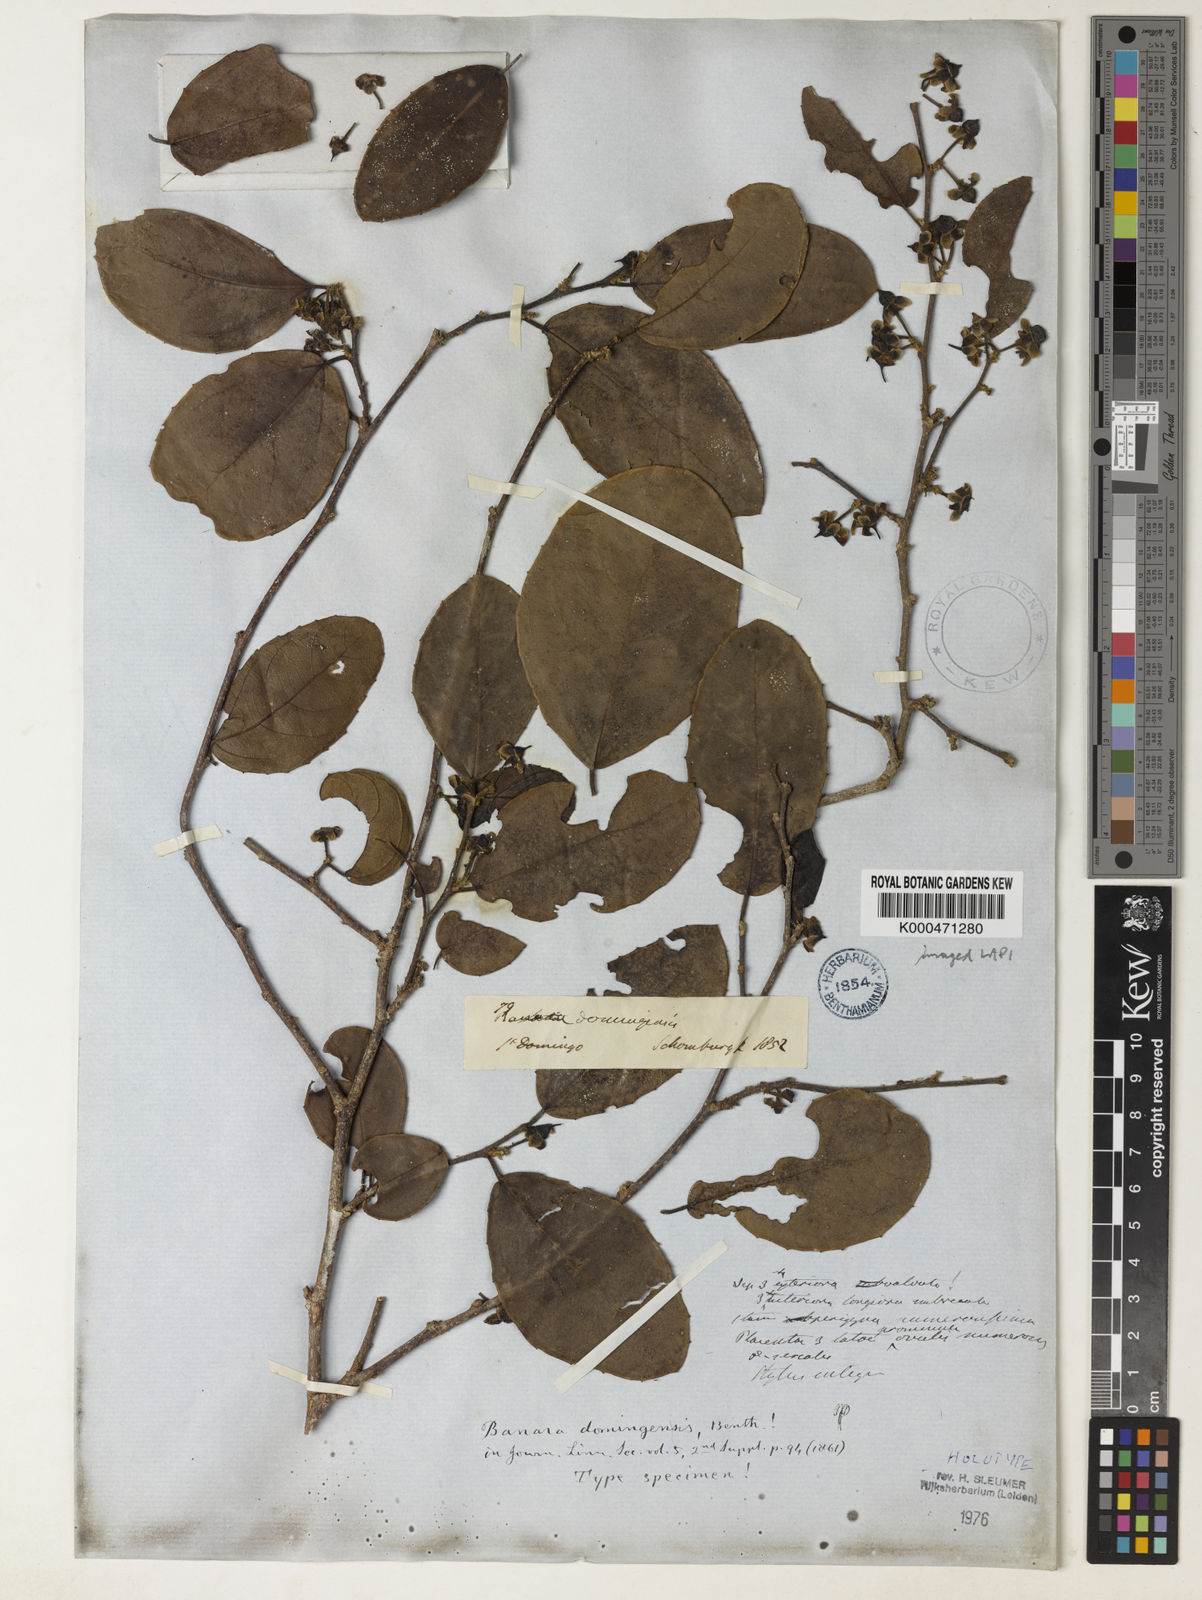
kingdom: Plantae
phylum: Tracheophyta
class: Magnoliopsida
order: Malpighiales
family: Salicaceae
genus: Banara
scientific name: Banara domingensis
